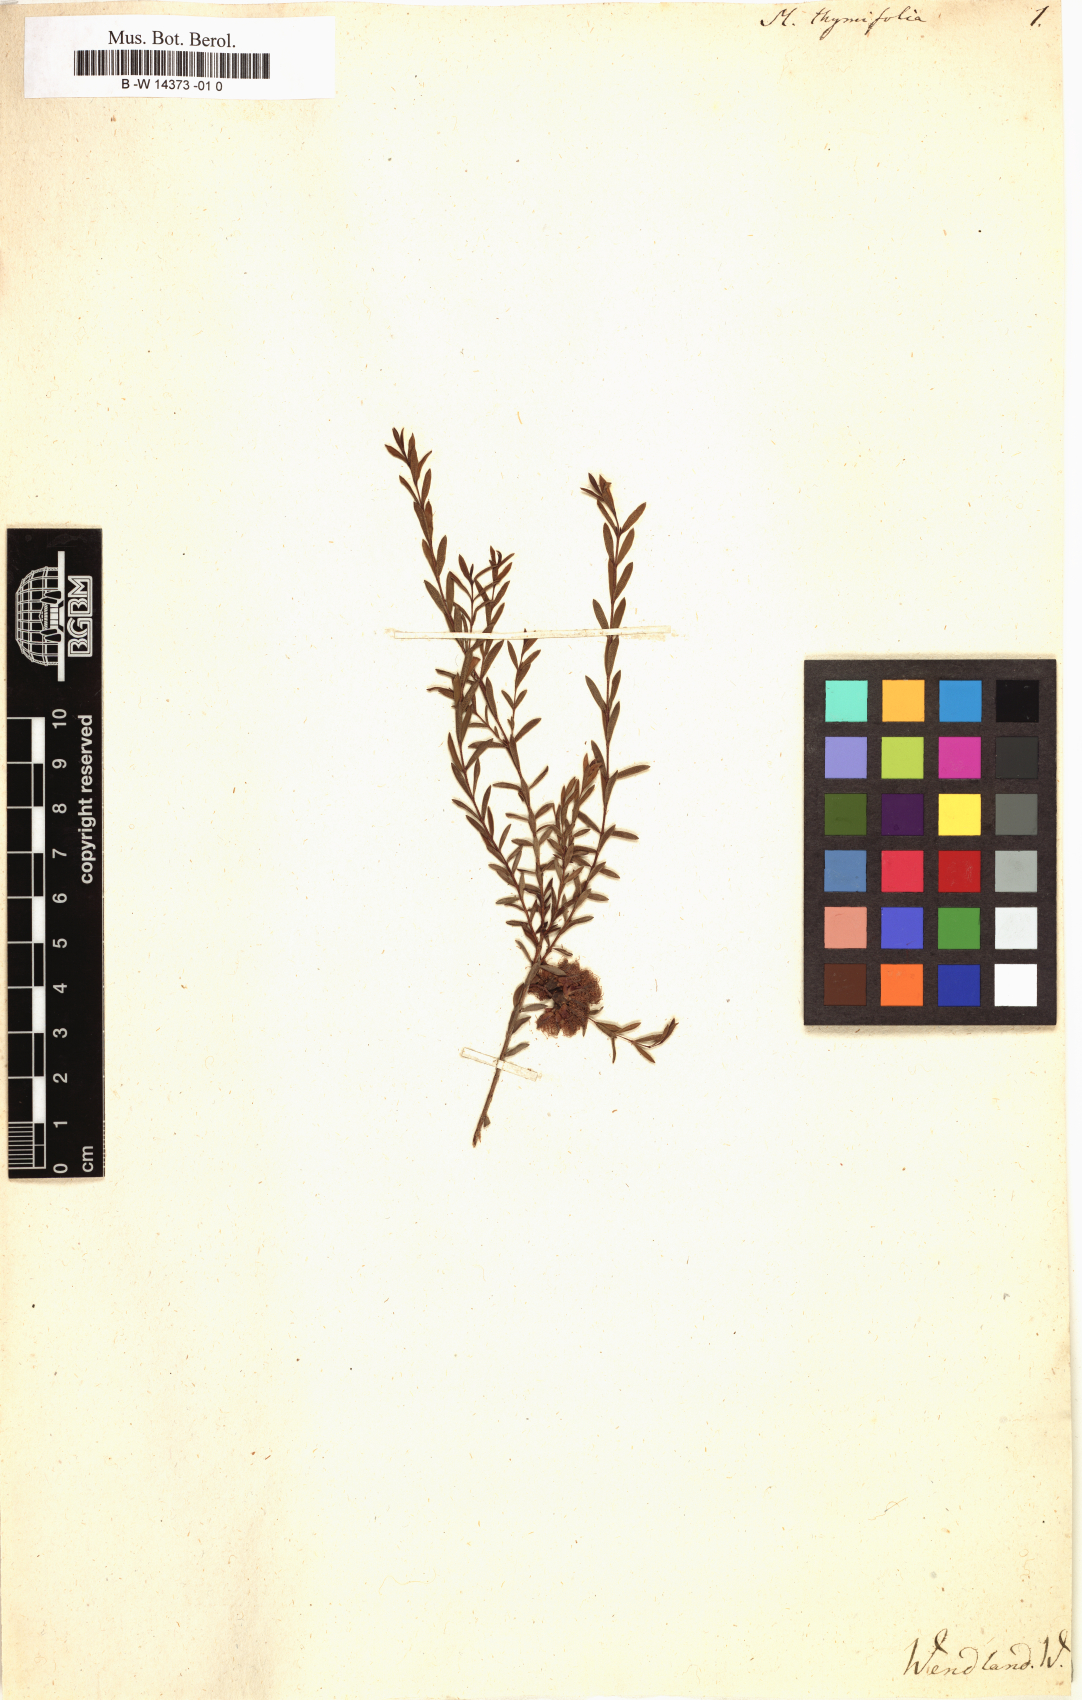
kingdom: Plantae
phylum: Tracheophyta
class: Magnoliopsida
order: Myrtales
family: Myrtaceae
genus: Melaleuca
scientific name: Melaleuca thymifolia
